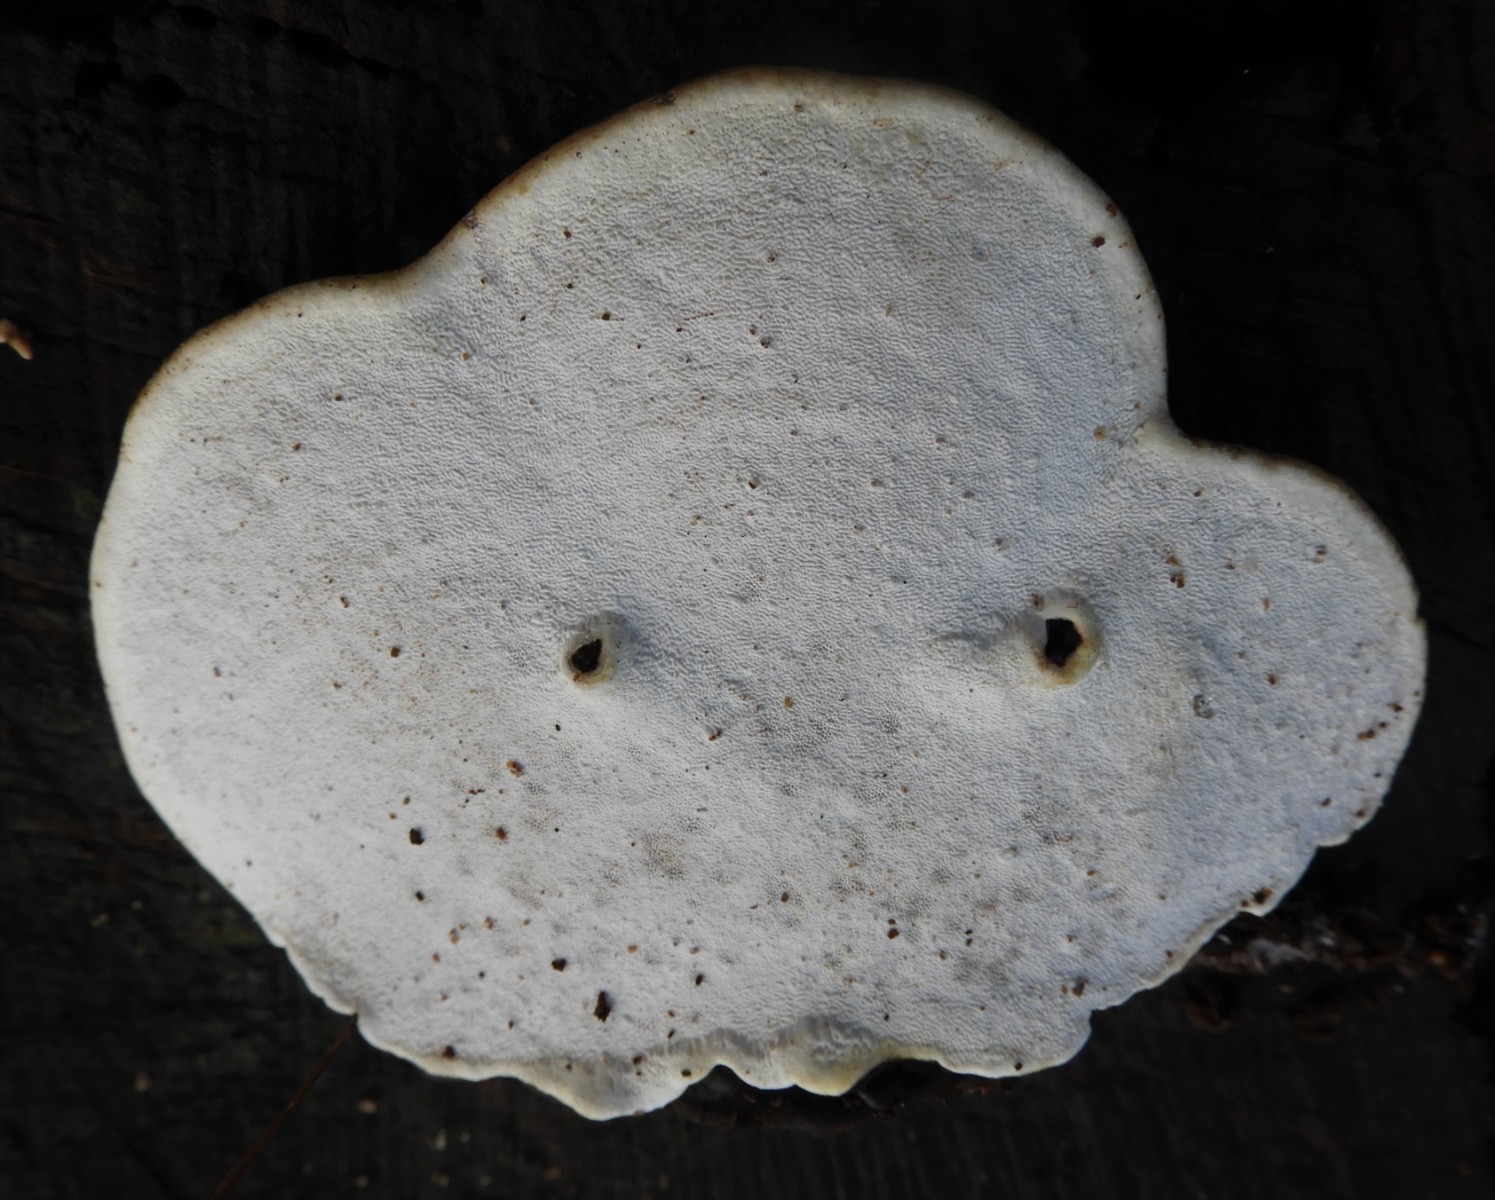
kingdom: Fungi
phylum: Basidiomycota
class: Agaricomycetes
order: Polyporales
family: Polyporaceae
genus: Ganoderma
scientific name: Ganoderma applanatum
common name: flad lakporesvamp
